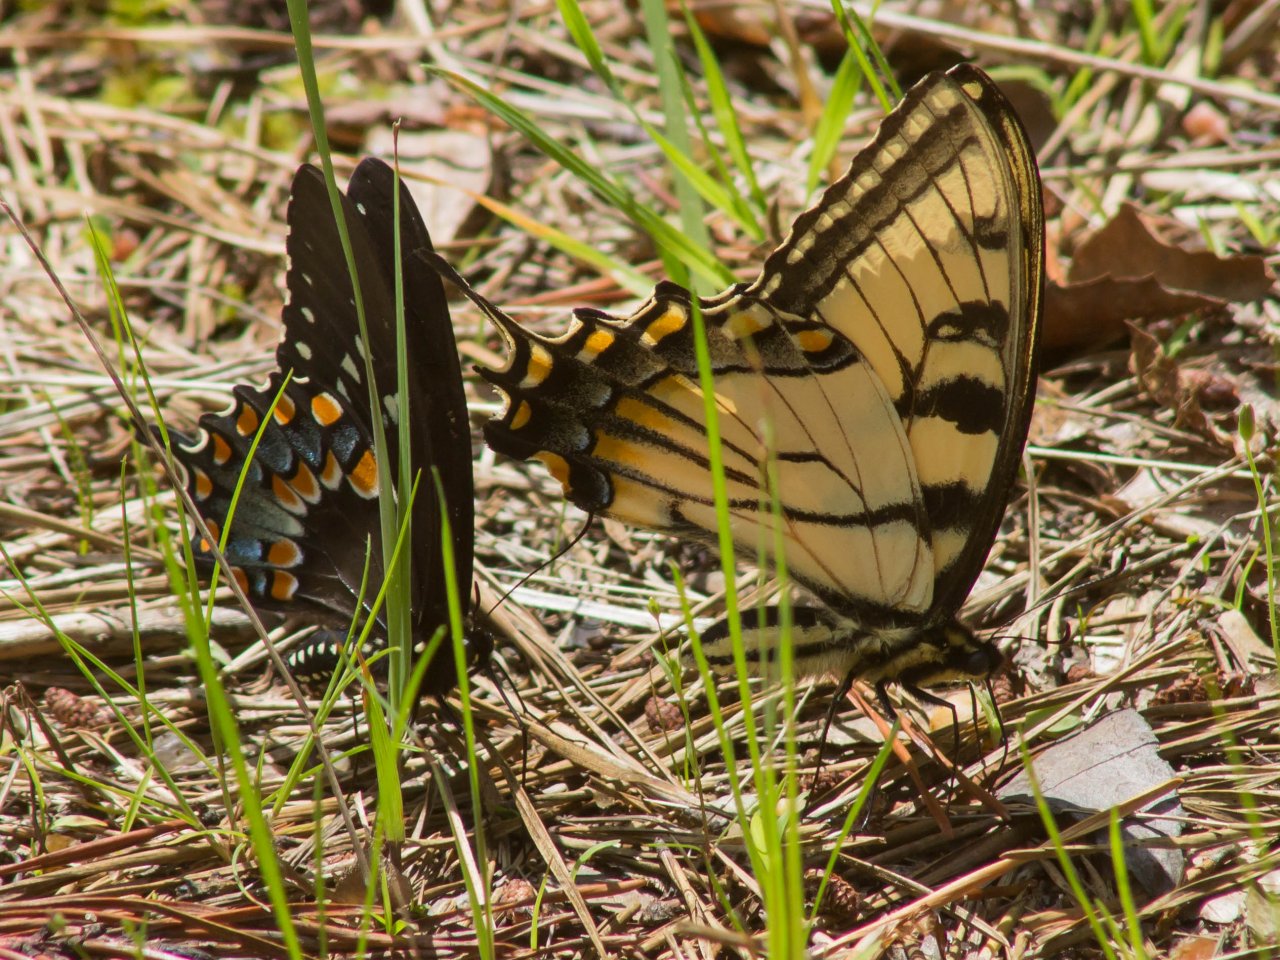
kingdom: Animalia
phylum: Arthropoda
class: Insecta
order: Lepidoptera
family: Papilionidae
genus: Pterourus
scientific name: Pterourus troilus
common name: Spicebush Swallowtail
